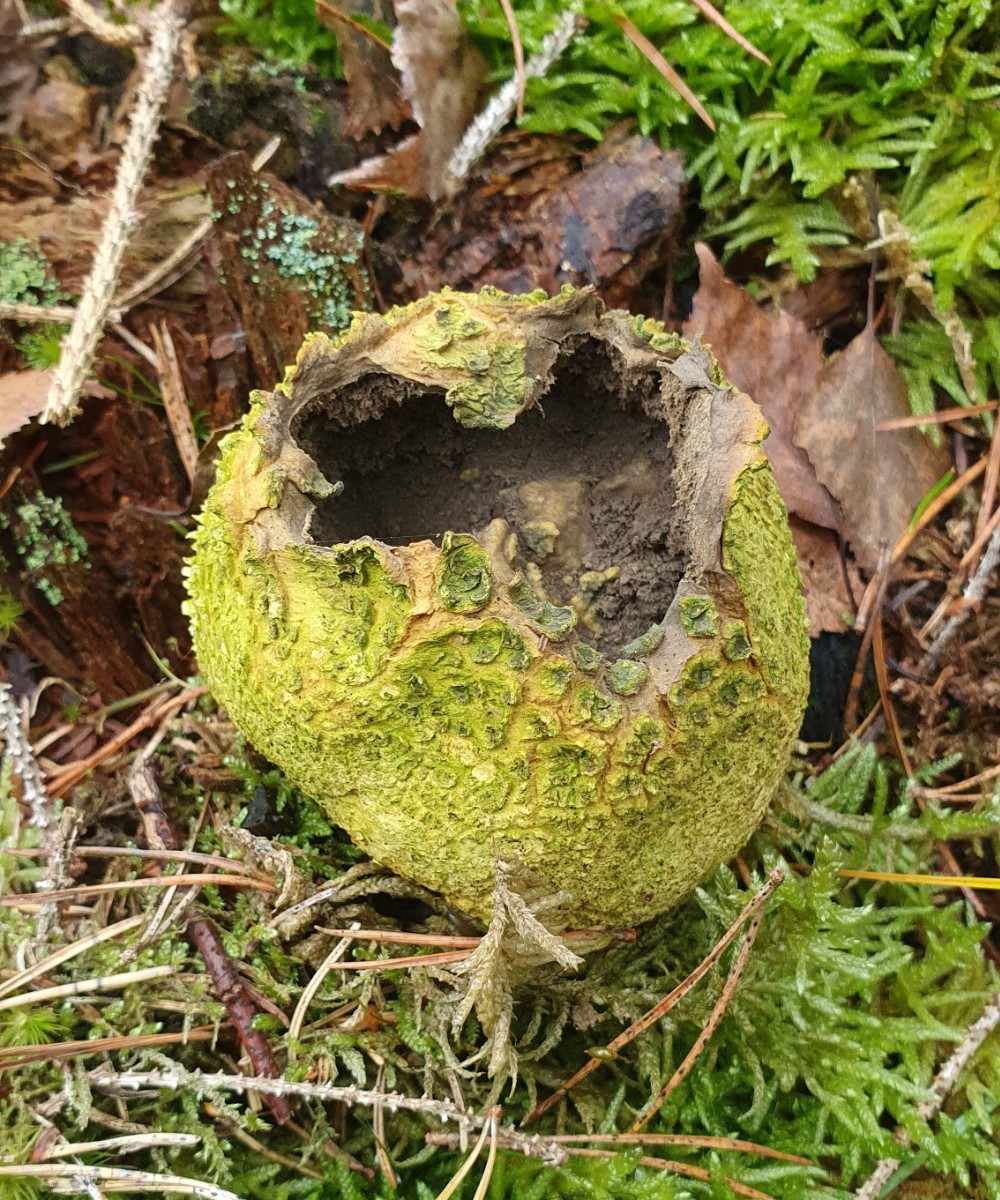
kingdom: Fungi
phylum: Basidiomycota
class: Agaricomycetes
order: Boletales
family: Sclerodermataceae
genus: Scleroderma
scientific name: Scleroderma citrinum
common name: almindelig bruskbold
